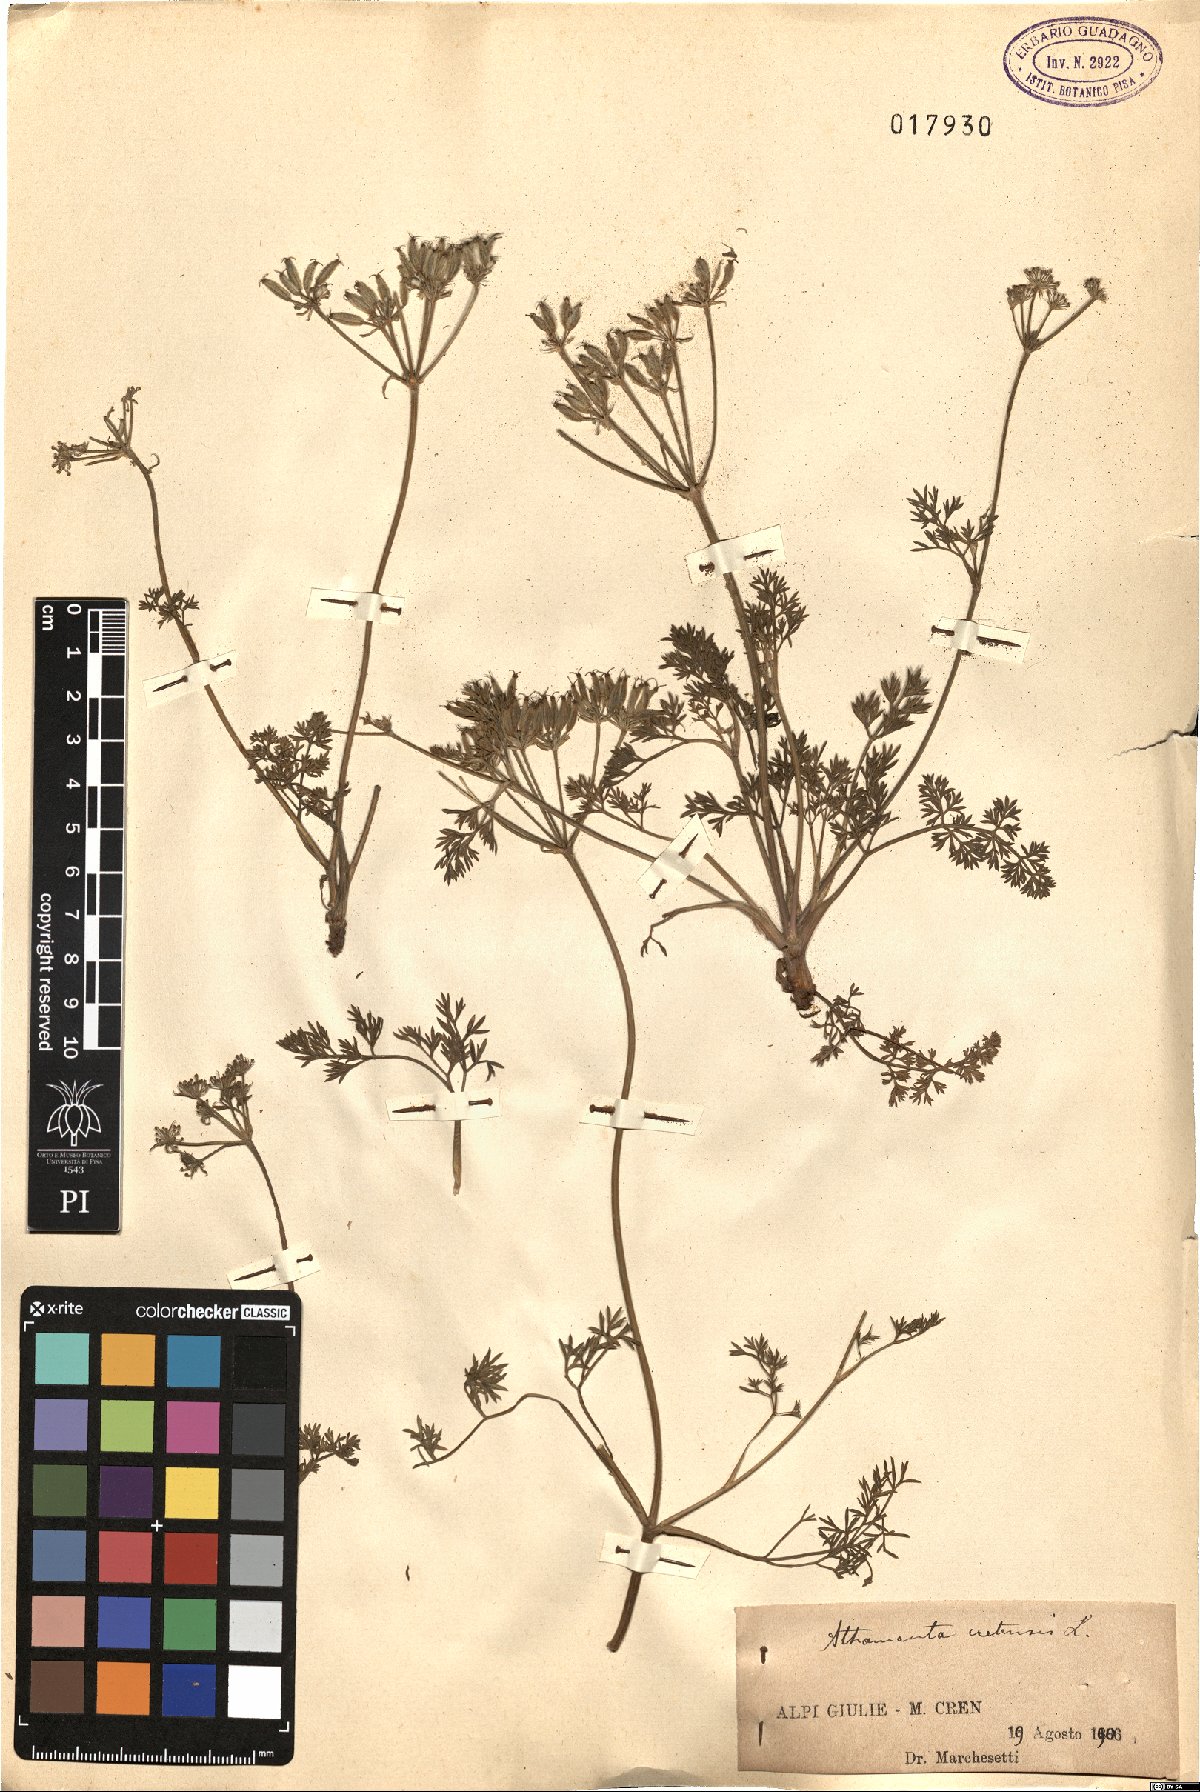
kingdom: Plantae
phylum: Tracheophyta
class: Magnoliopsida
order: Apiales
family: Apiaceae
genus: Athamanta
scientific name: Athamanta cretensis
